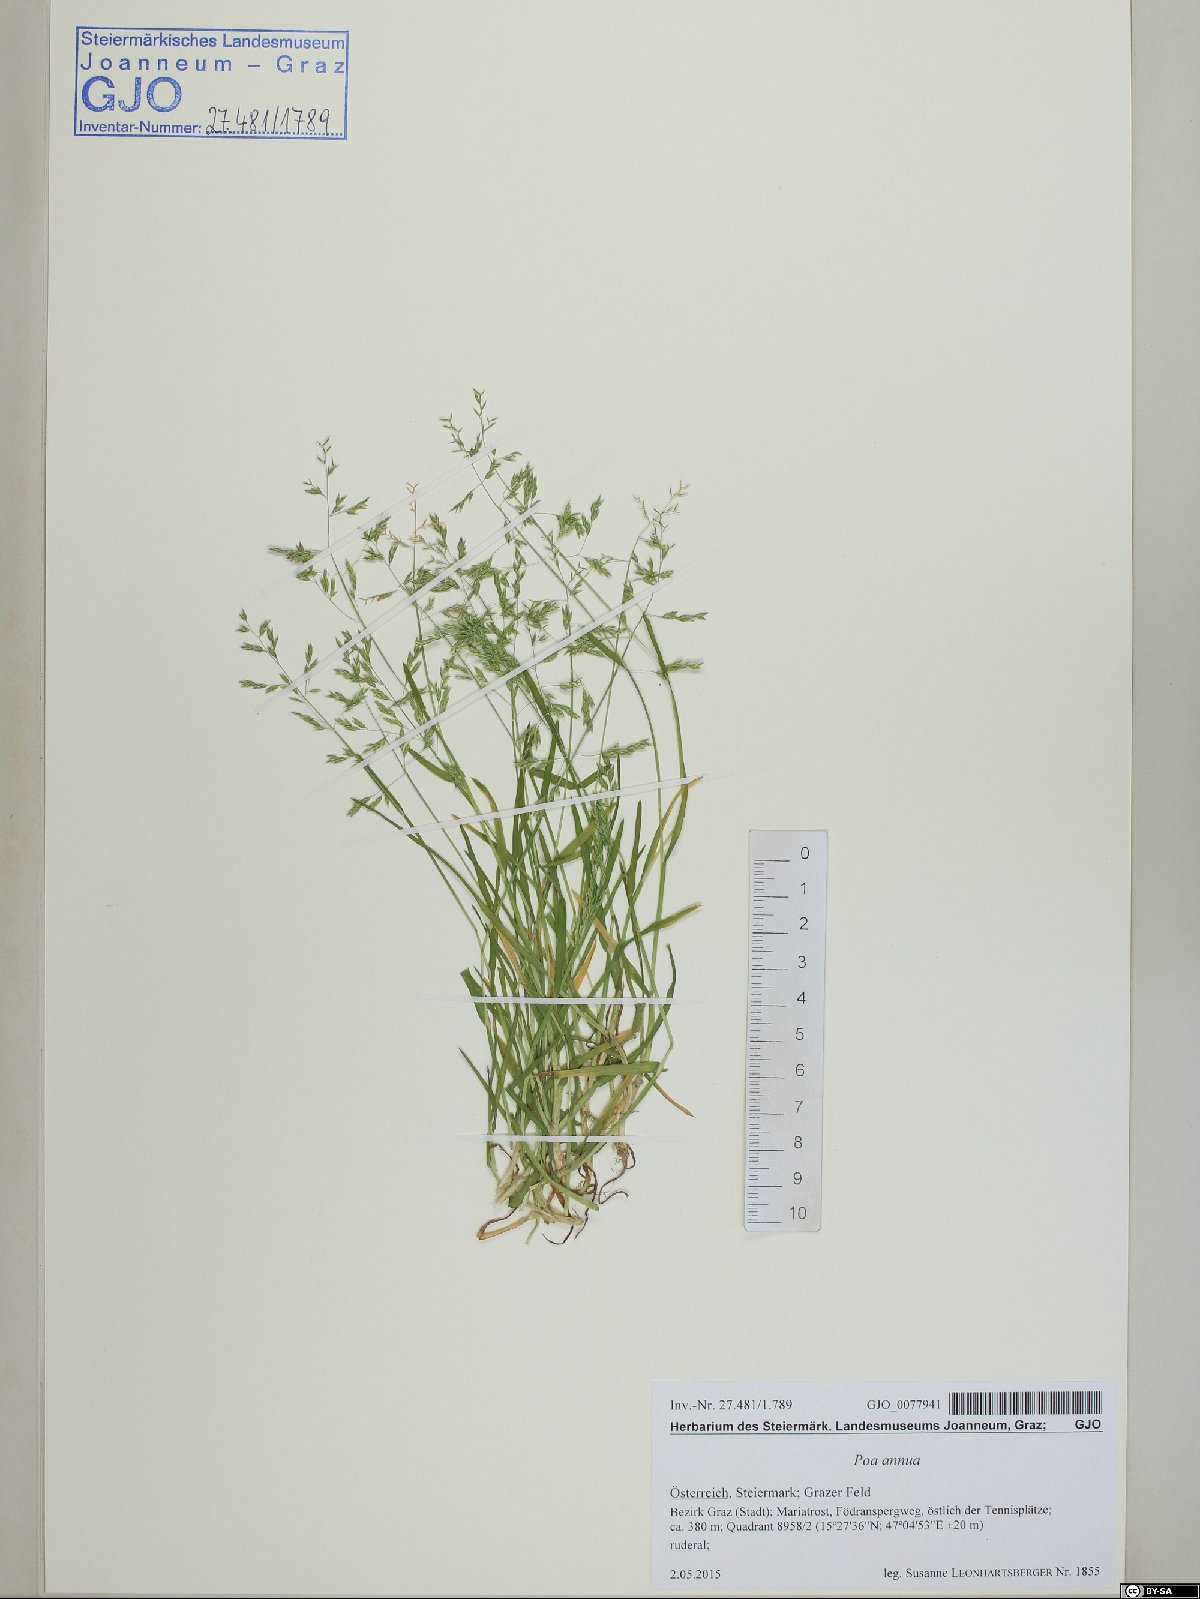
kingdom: Plantae
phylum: Tracheophyta
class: Liliopsida
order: Poales
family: Poaceae
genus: Poa
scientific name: Poa annua
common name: Annual bluegrass
